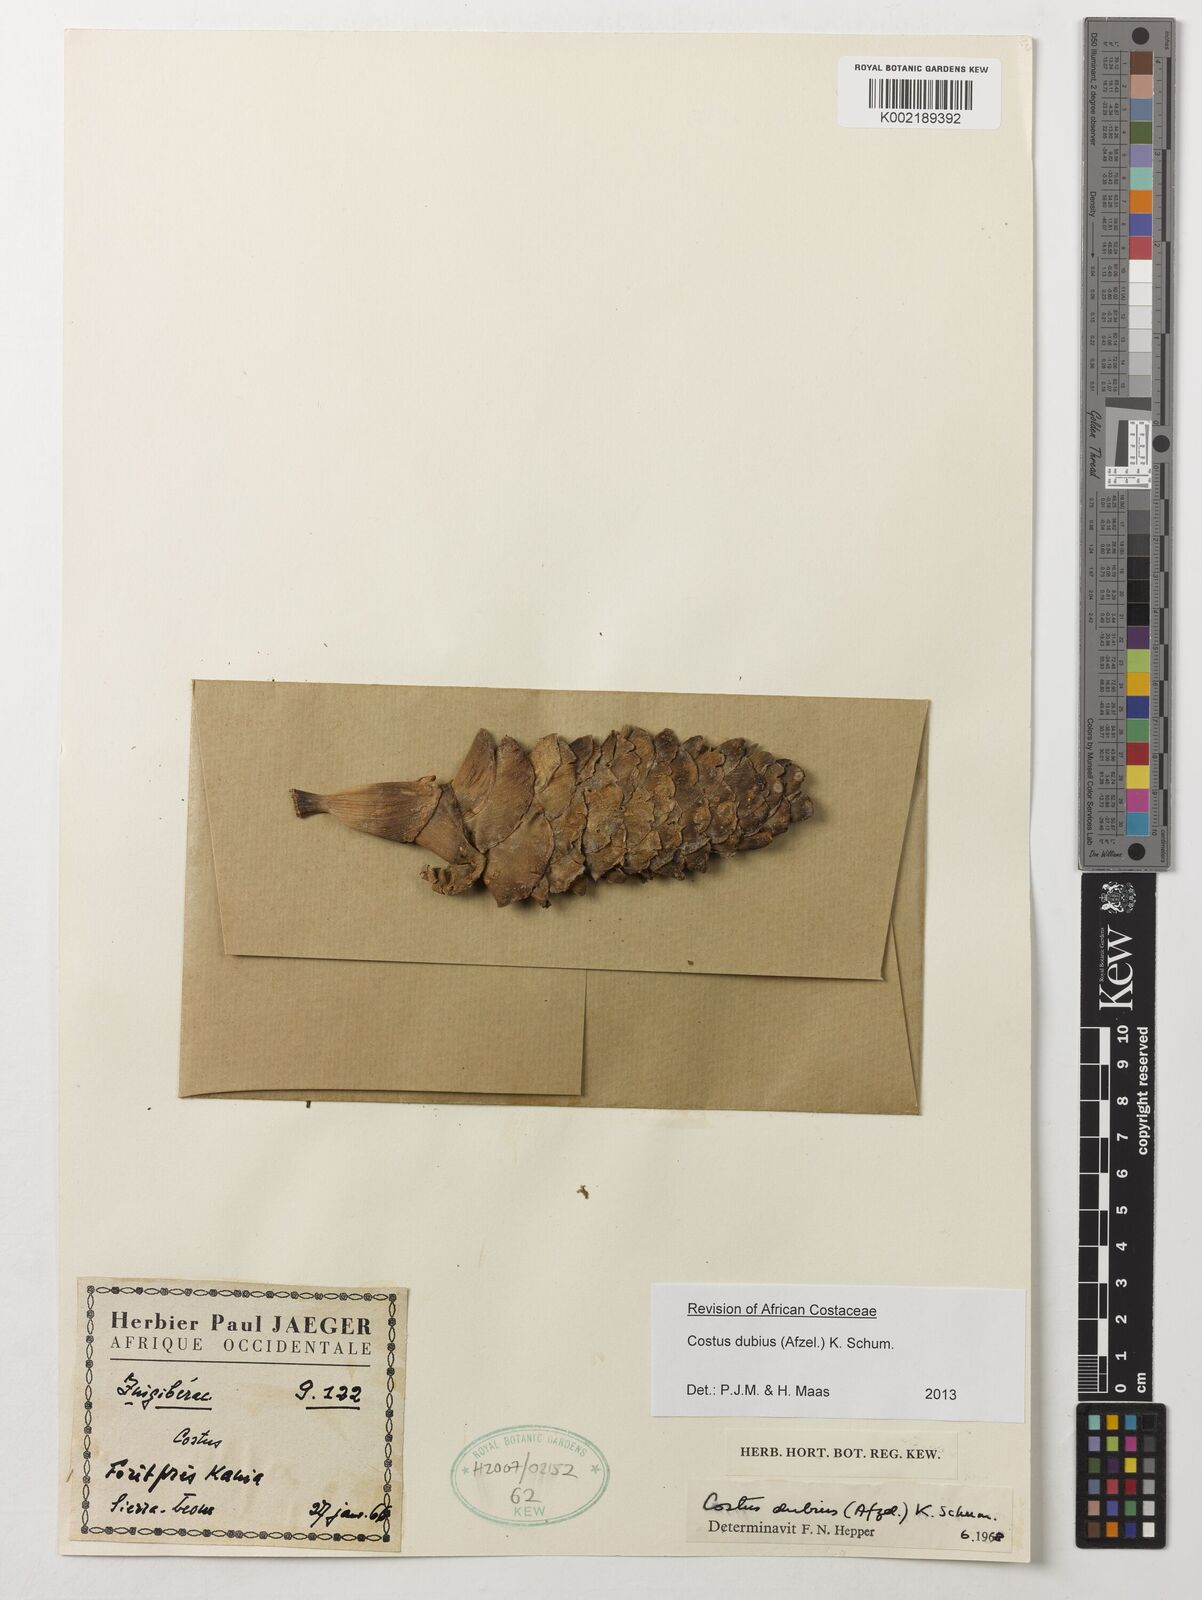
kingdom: Plantae
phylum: Tracheophyta
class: Liliopsida
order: Zingiberales
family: Costaceae
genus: Costus
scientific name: Costus dubius
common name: Costus
